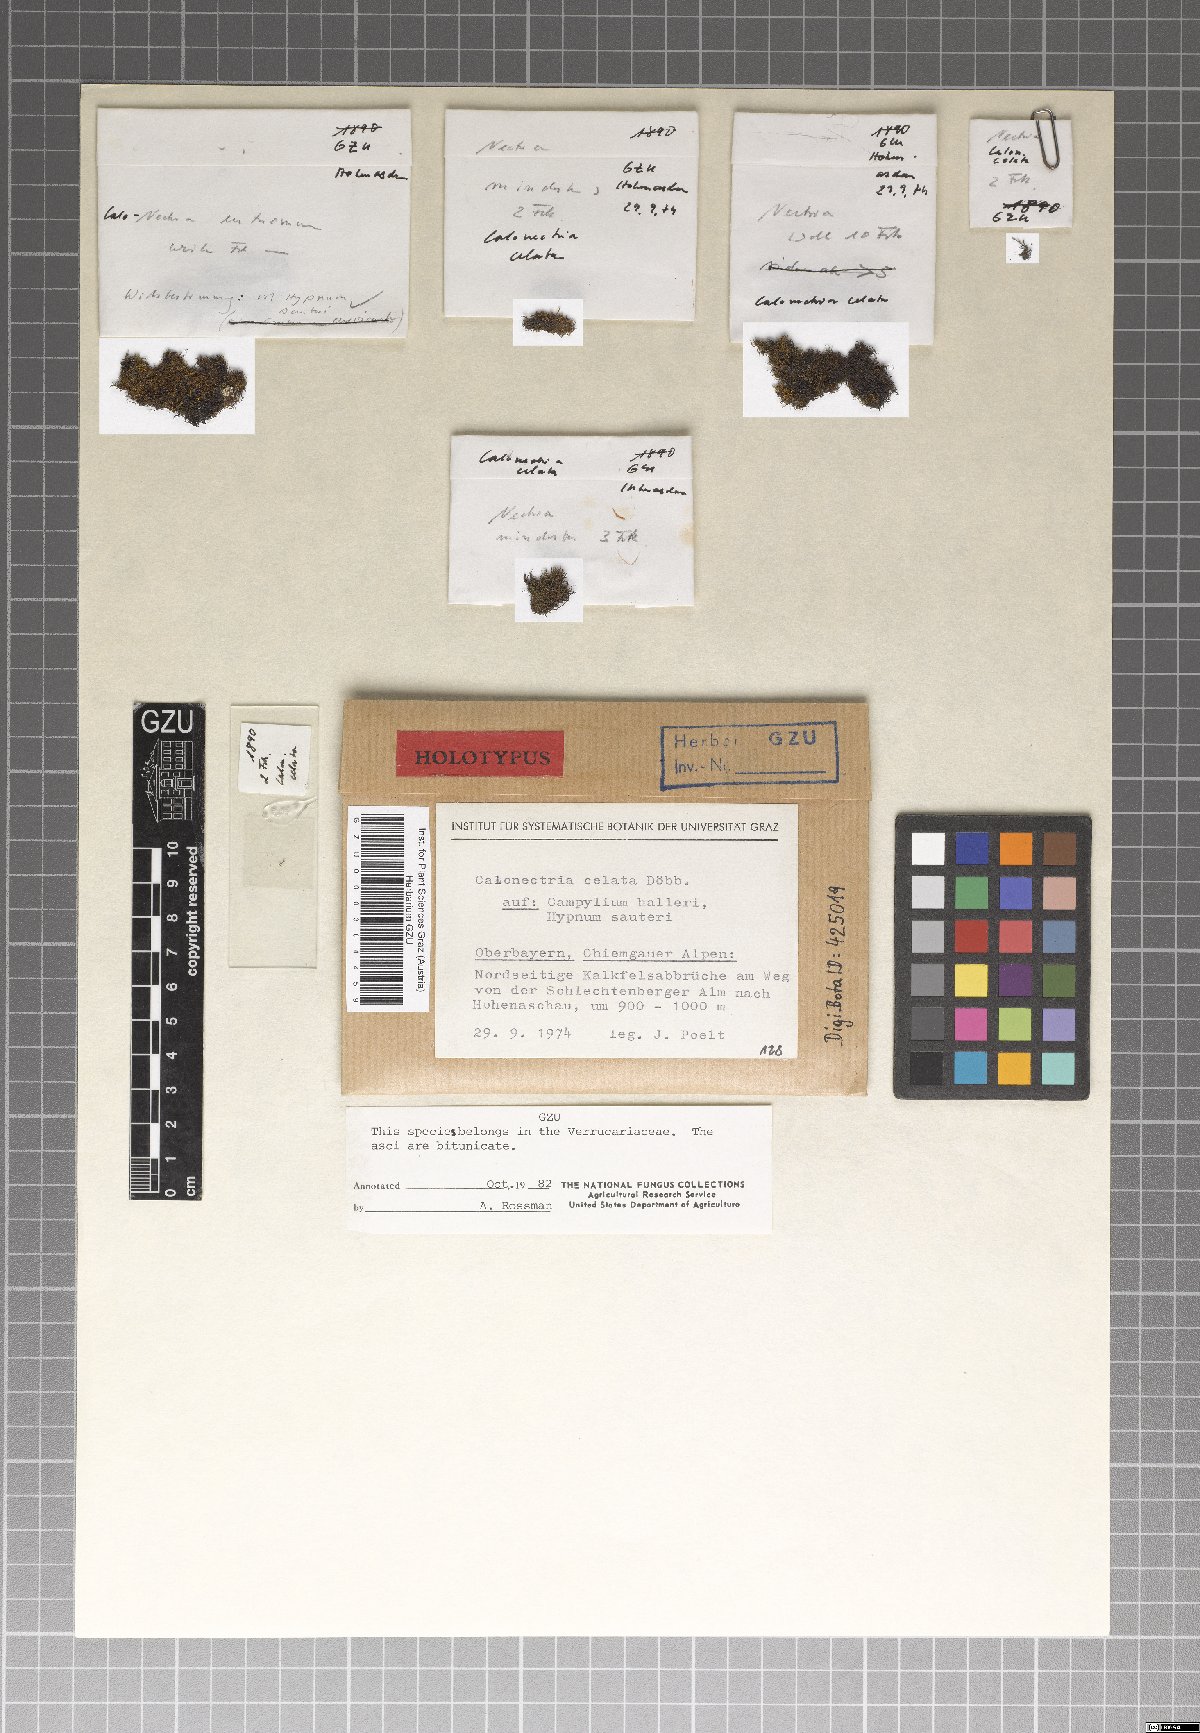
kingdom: Fungi
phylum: Ascomycota
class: Sordariomycetes
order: Hypocreales
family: Nectriaceae
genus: Calonectria
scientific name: Calonectria celata
